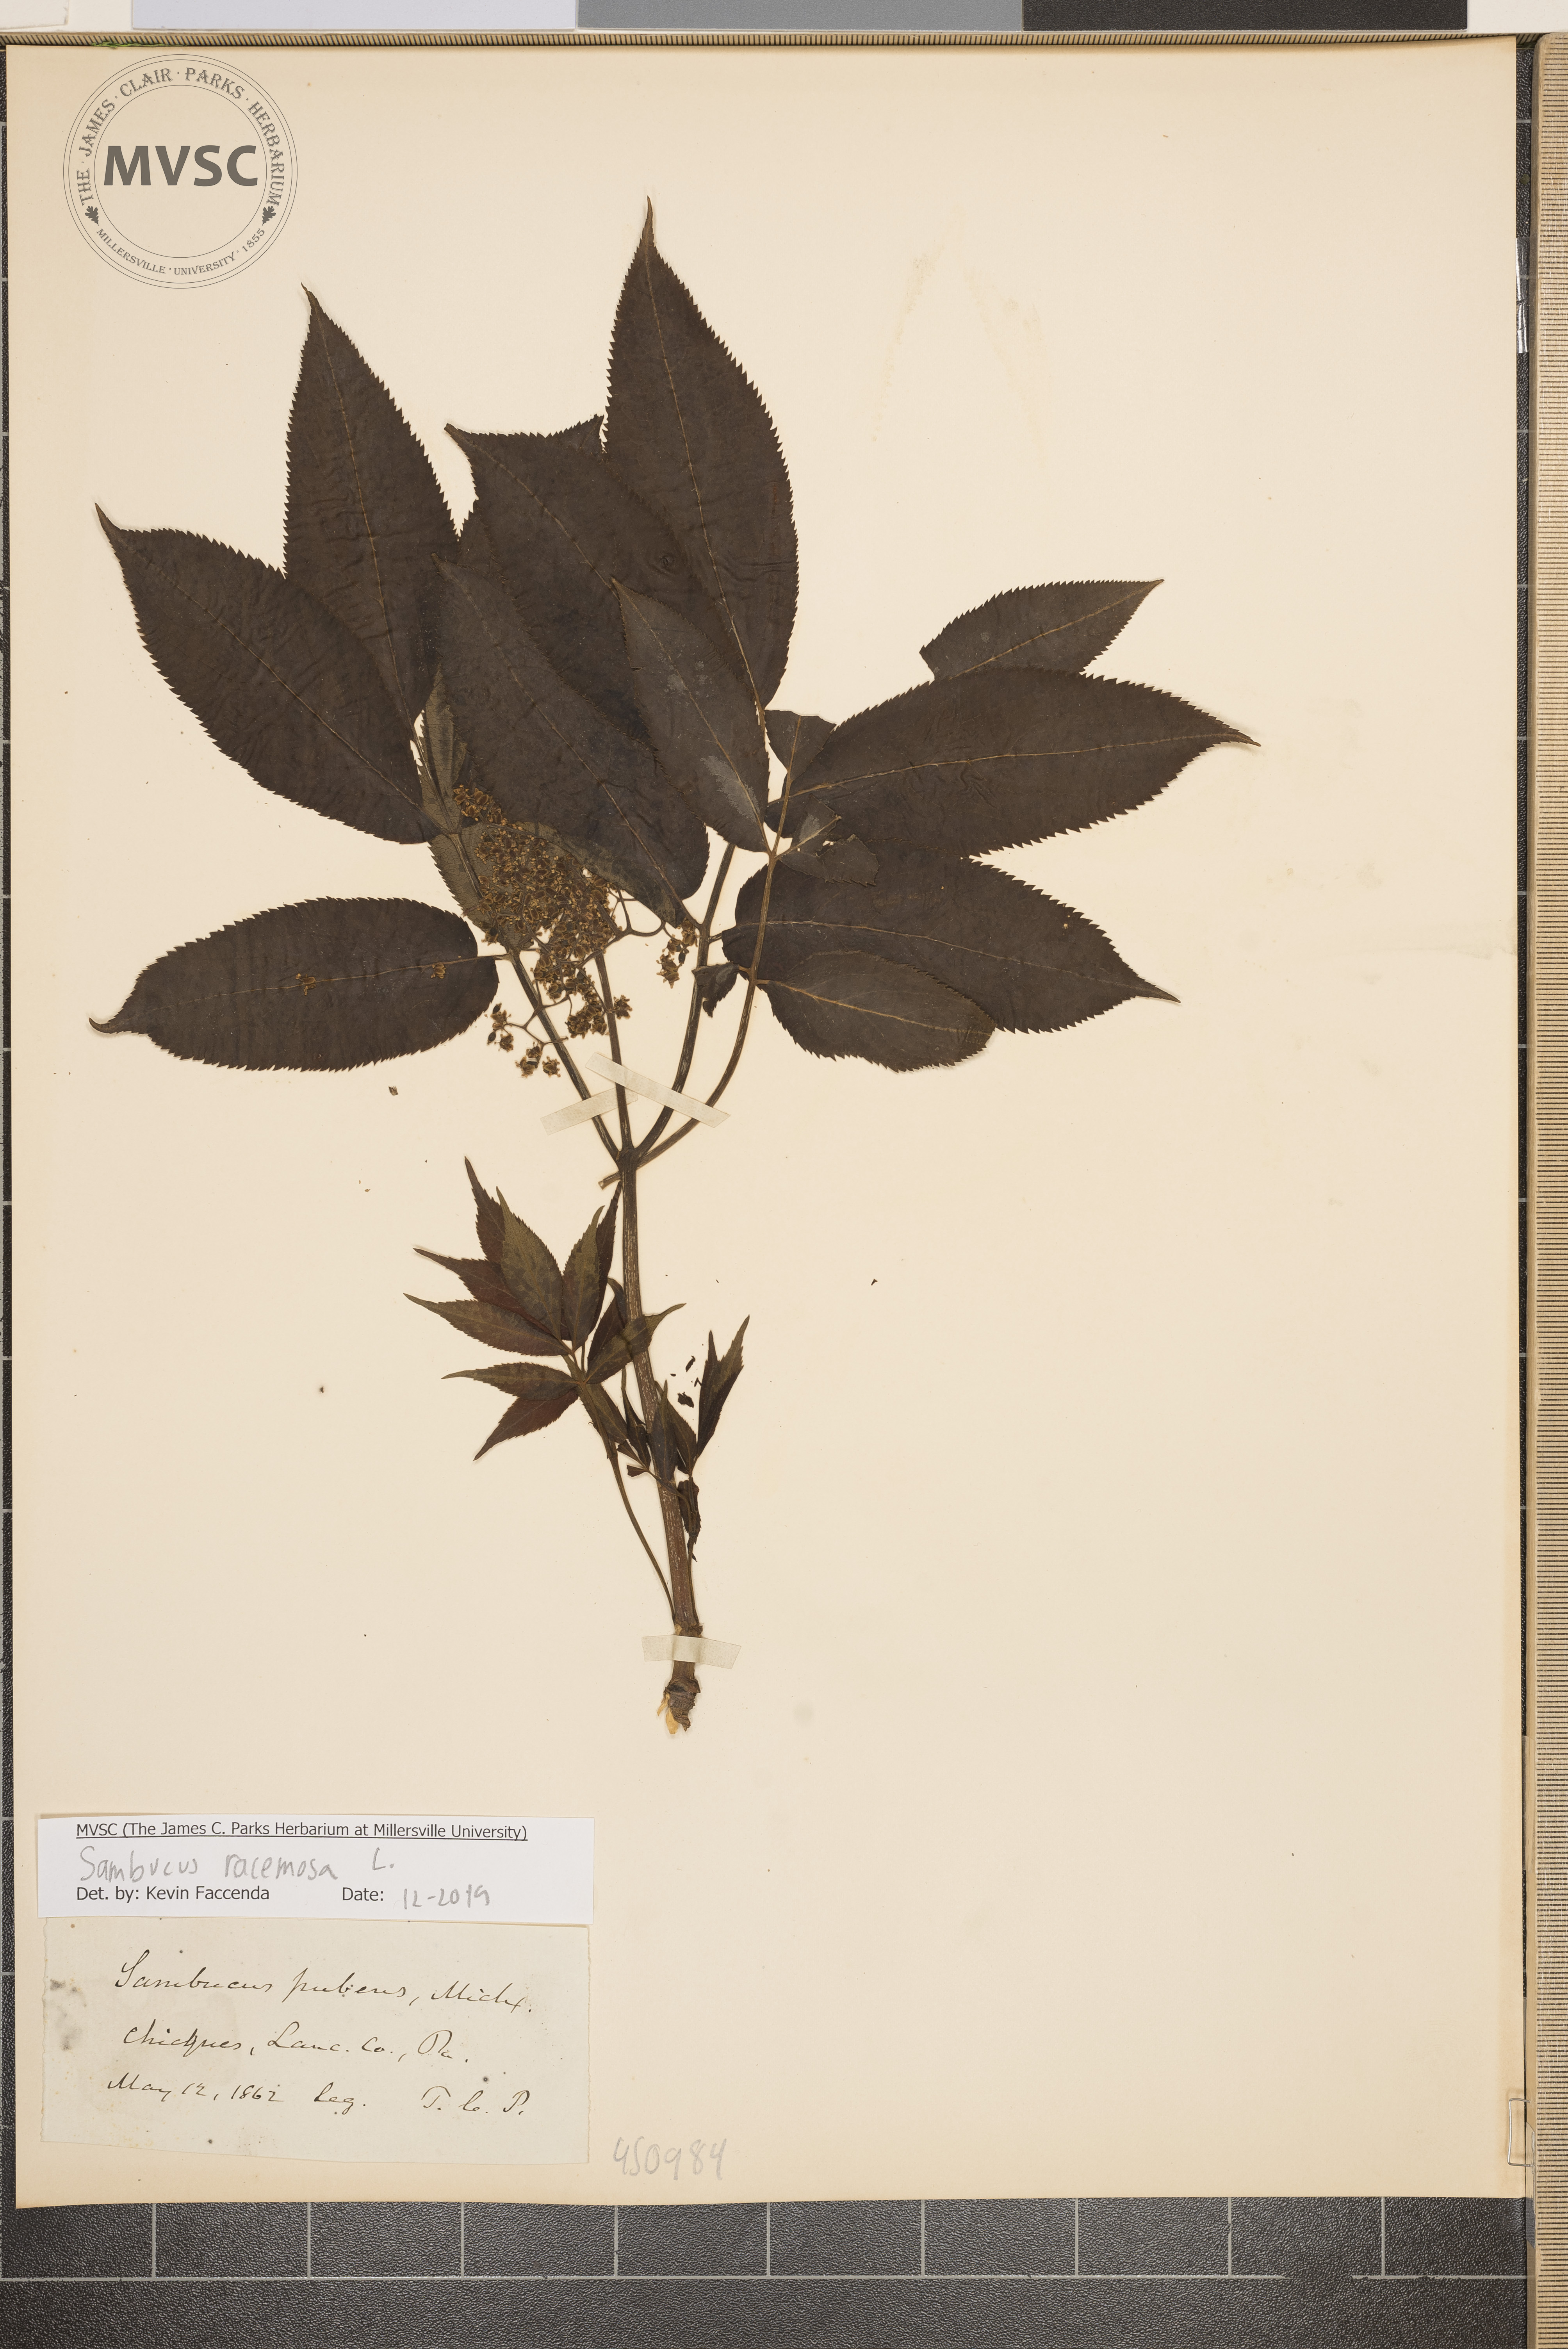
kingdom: Plantae
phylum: Tracheophyta
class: Magnoliopsida
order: Dipsacales
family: Viburnaceae
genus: Sambucus
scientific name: Sambucus racemosa
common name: Red-berried elder
